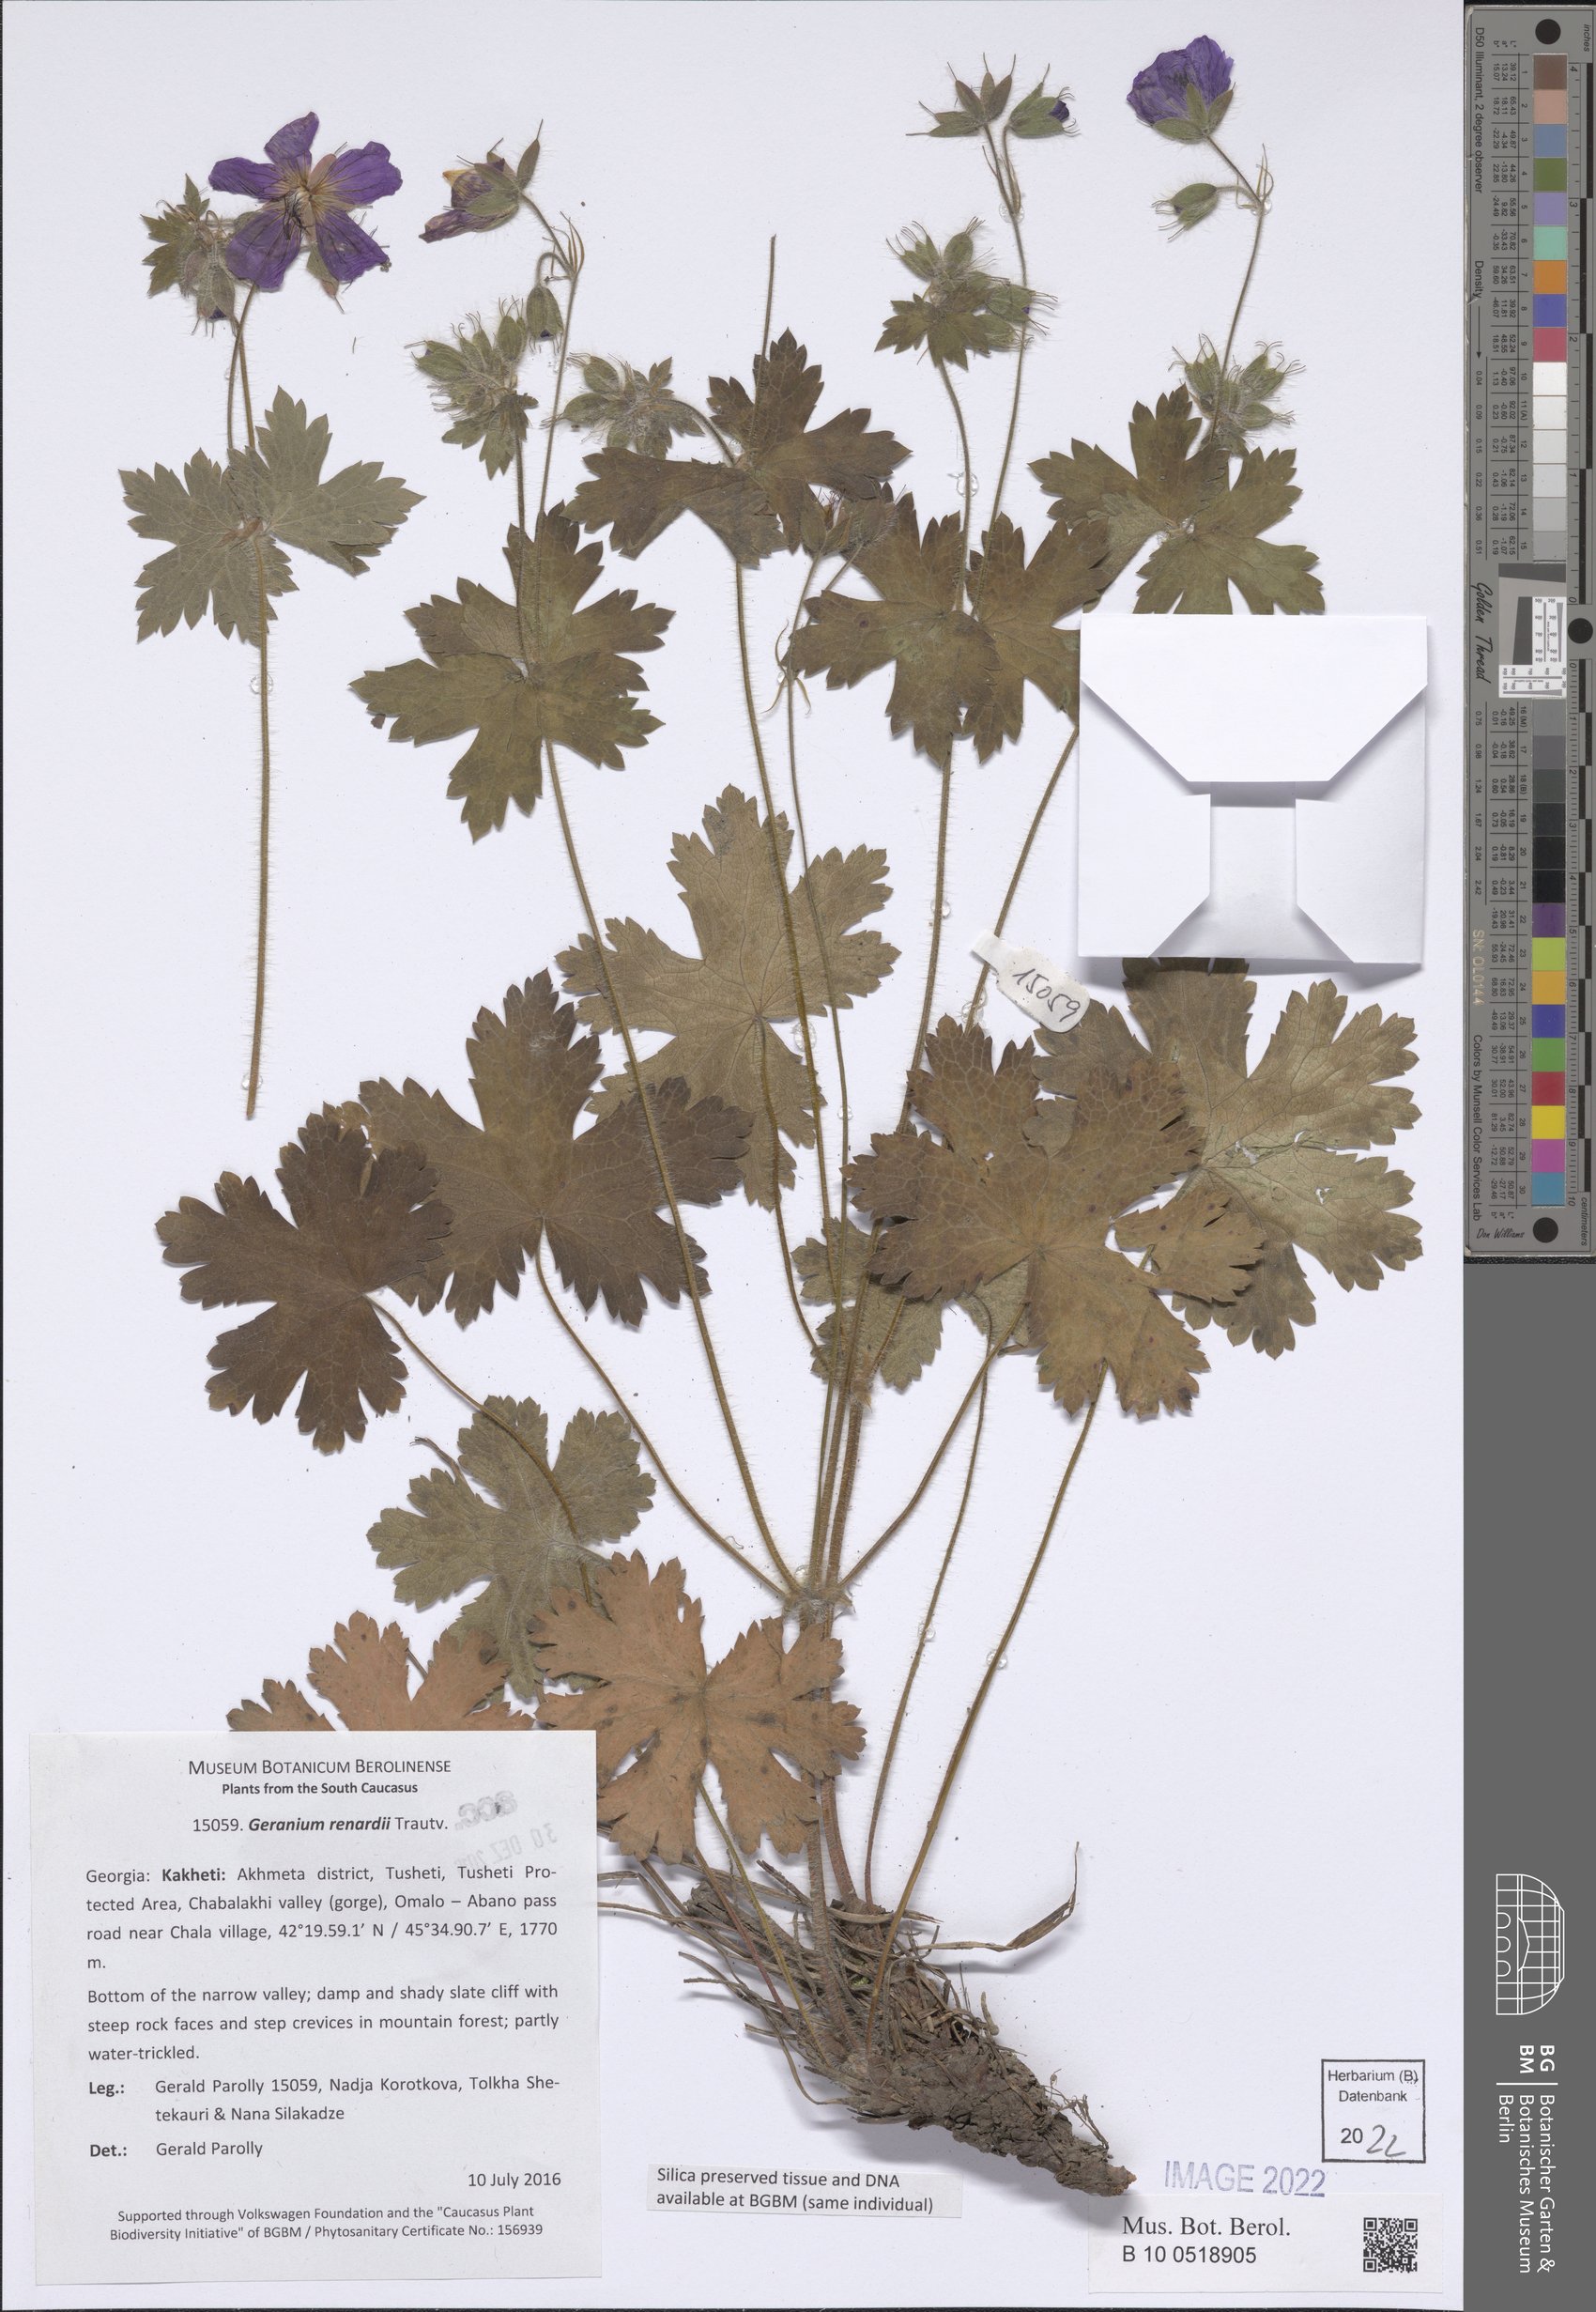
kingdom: Plantae
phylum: Tracheophyta
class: Magnoliopsida
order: Geraniales
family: Geraniaceae
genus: Geranium
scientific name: Geranium renardii
